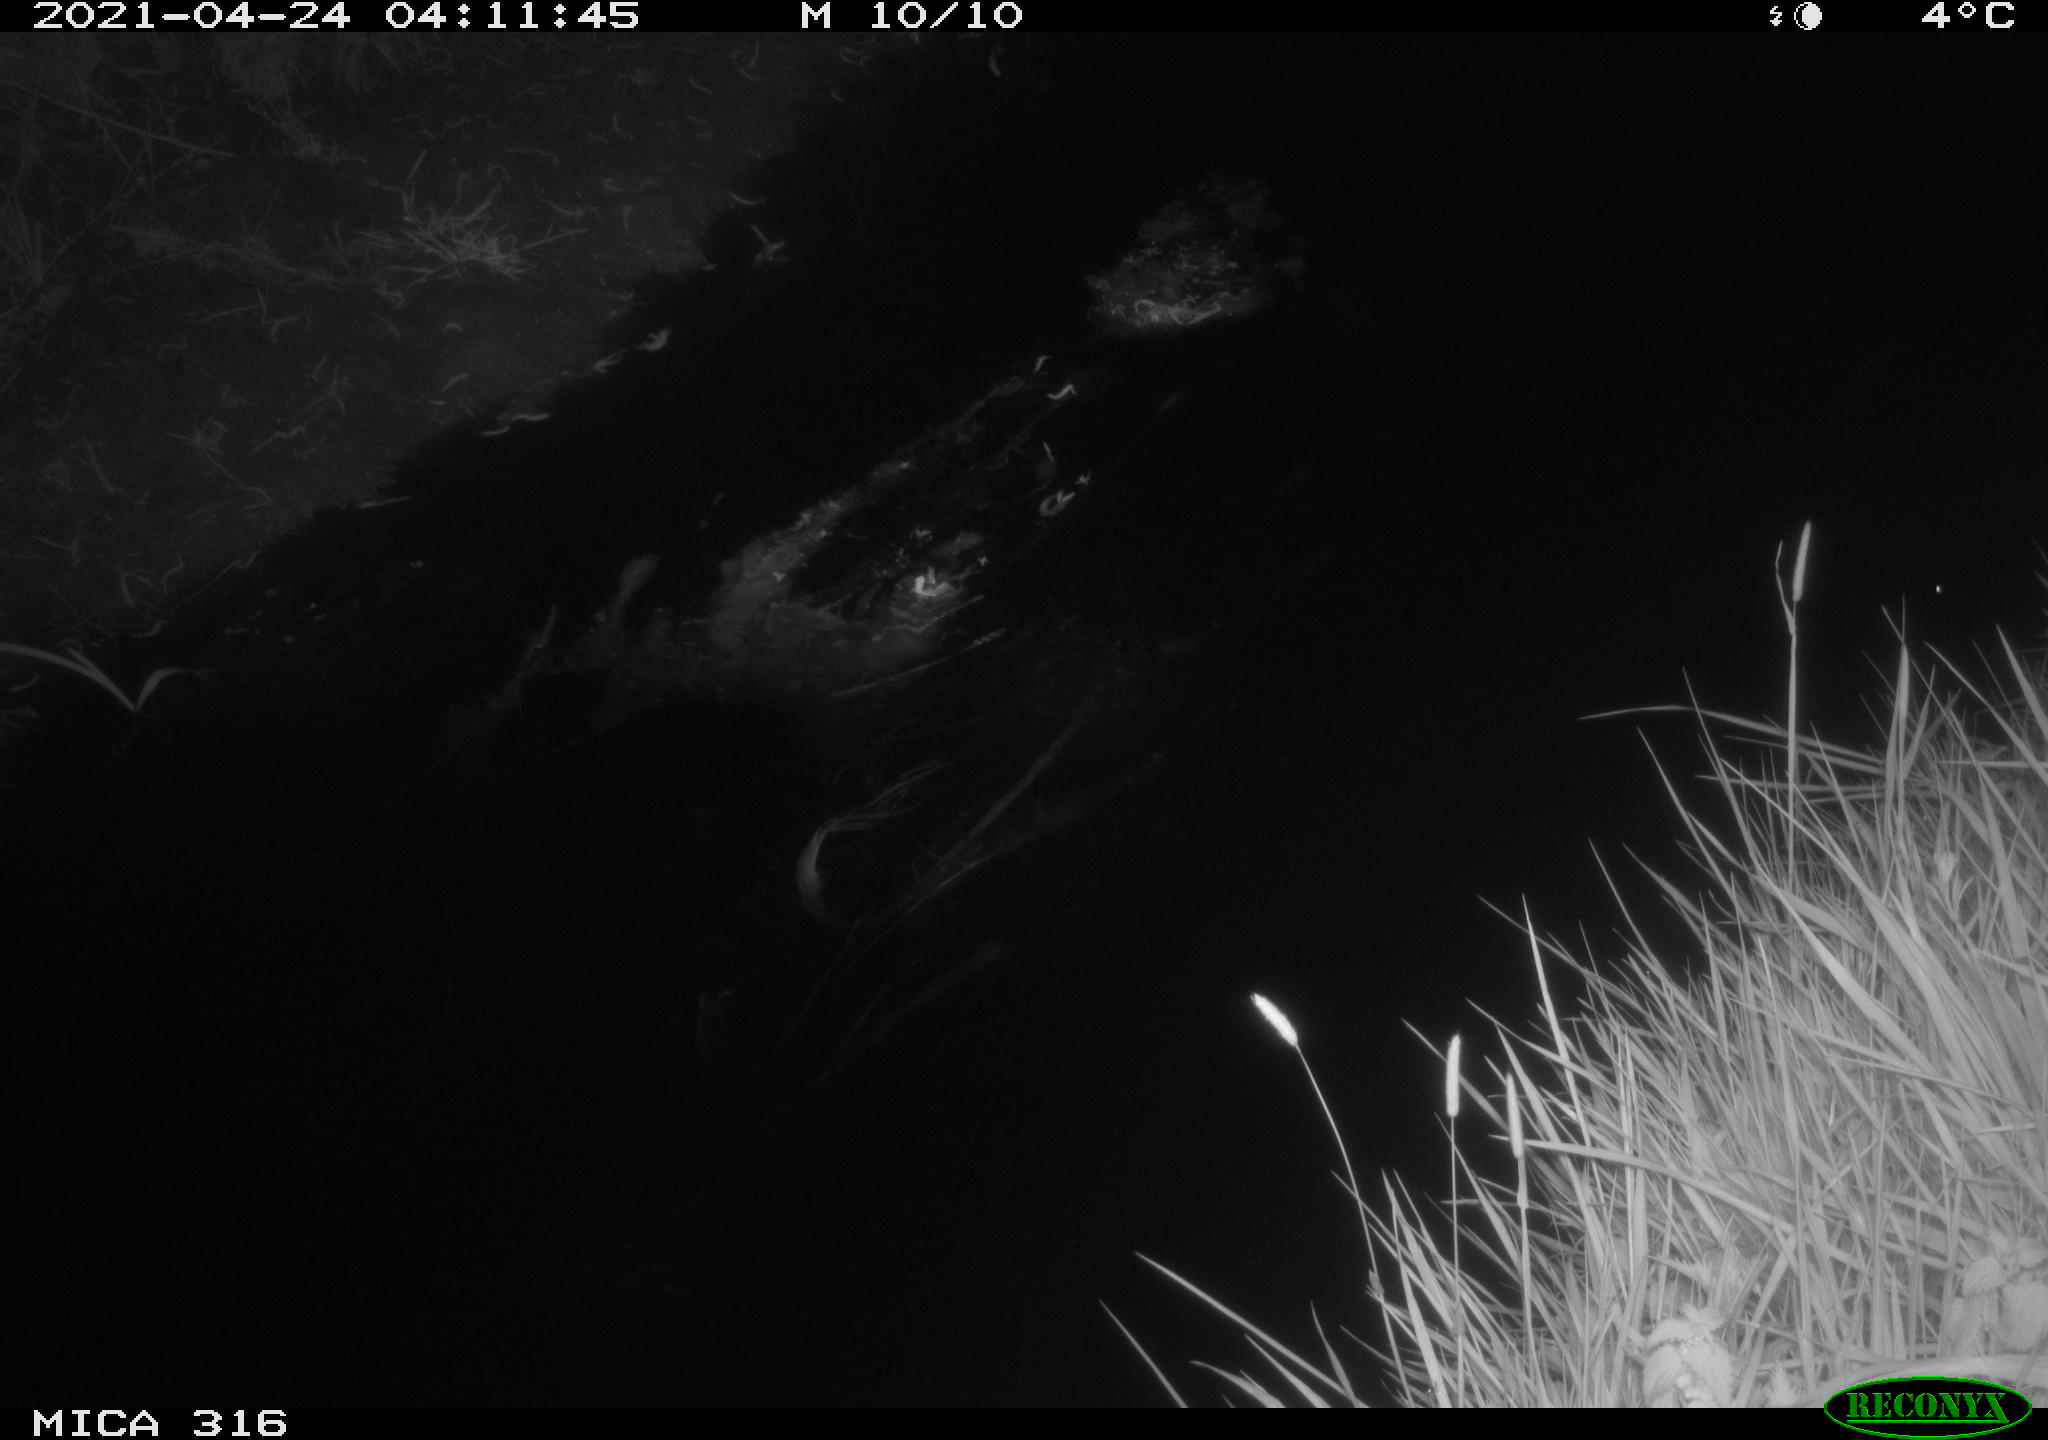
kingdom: Animalia
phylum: Chordata
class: Aves
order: Anseriformes
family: Anatidae
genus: Anas
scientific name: Anas platyrhynchos
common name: Mallard
